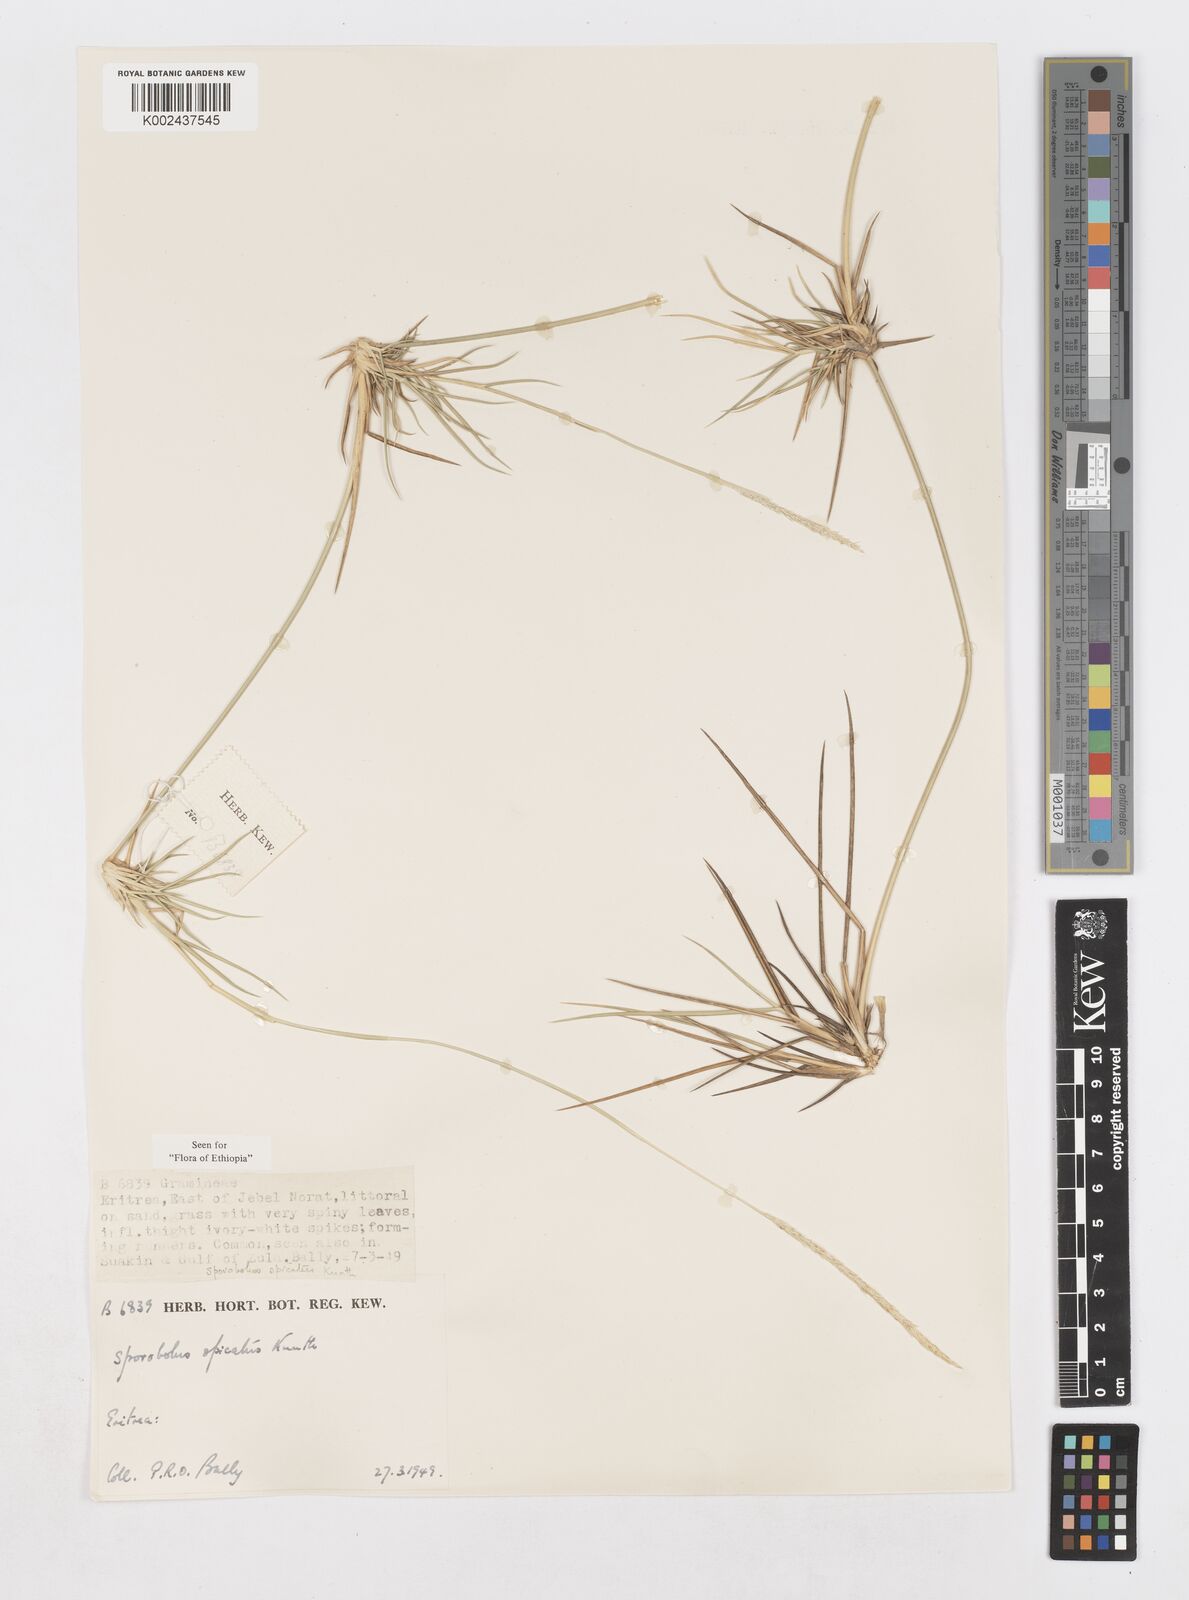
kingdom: Plantae
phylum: Tracheophyta
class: Liliopsida
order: Poales
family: Poaceae
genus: Sporobolus
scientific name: Sporobolus spicatus
